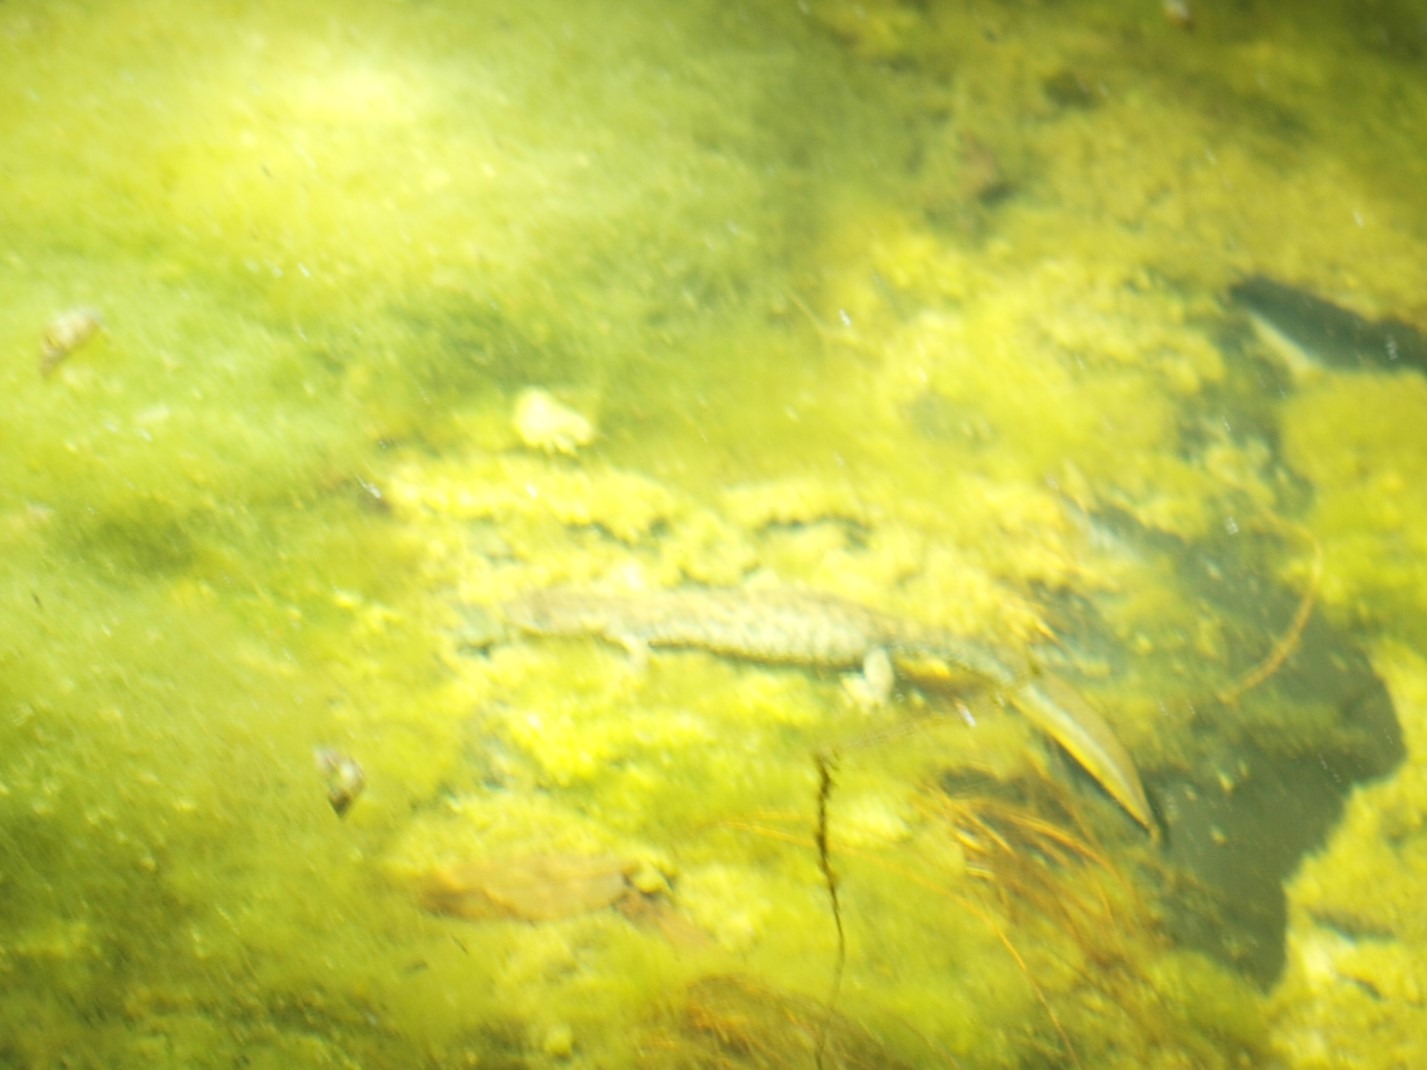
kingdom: Animalia
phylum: Chordata
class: Amphibia
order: Caudata
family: Salamandridae
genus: Triturus
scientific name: Triturus cristatus
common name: Stor vandsalamander
